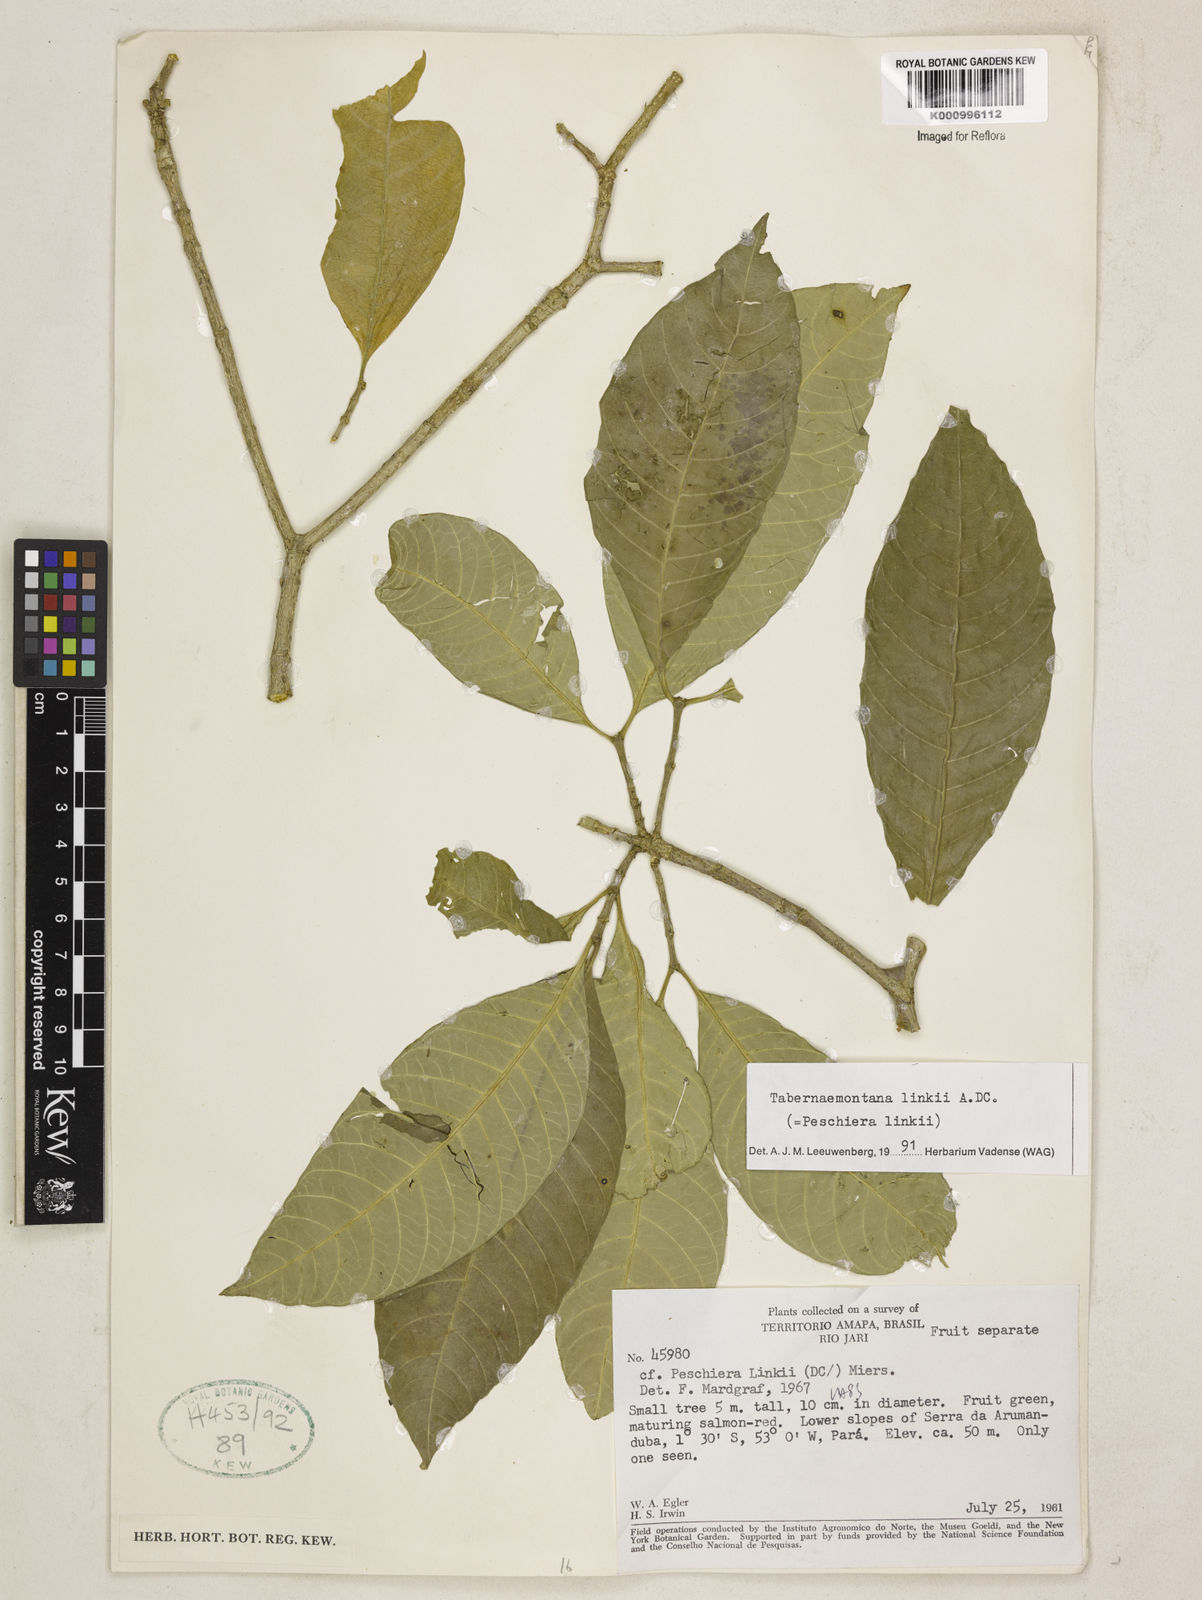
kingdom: Plantae
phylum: Tracheophyta
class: Magnoliopsida
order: Gentianales
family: Apocynaceae
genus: Tabernaemontana
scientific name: Tabernaemontana linkii
